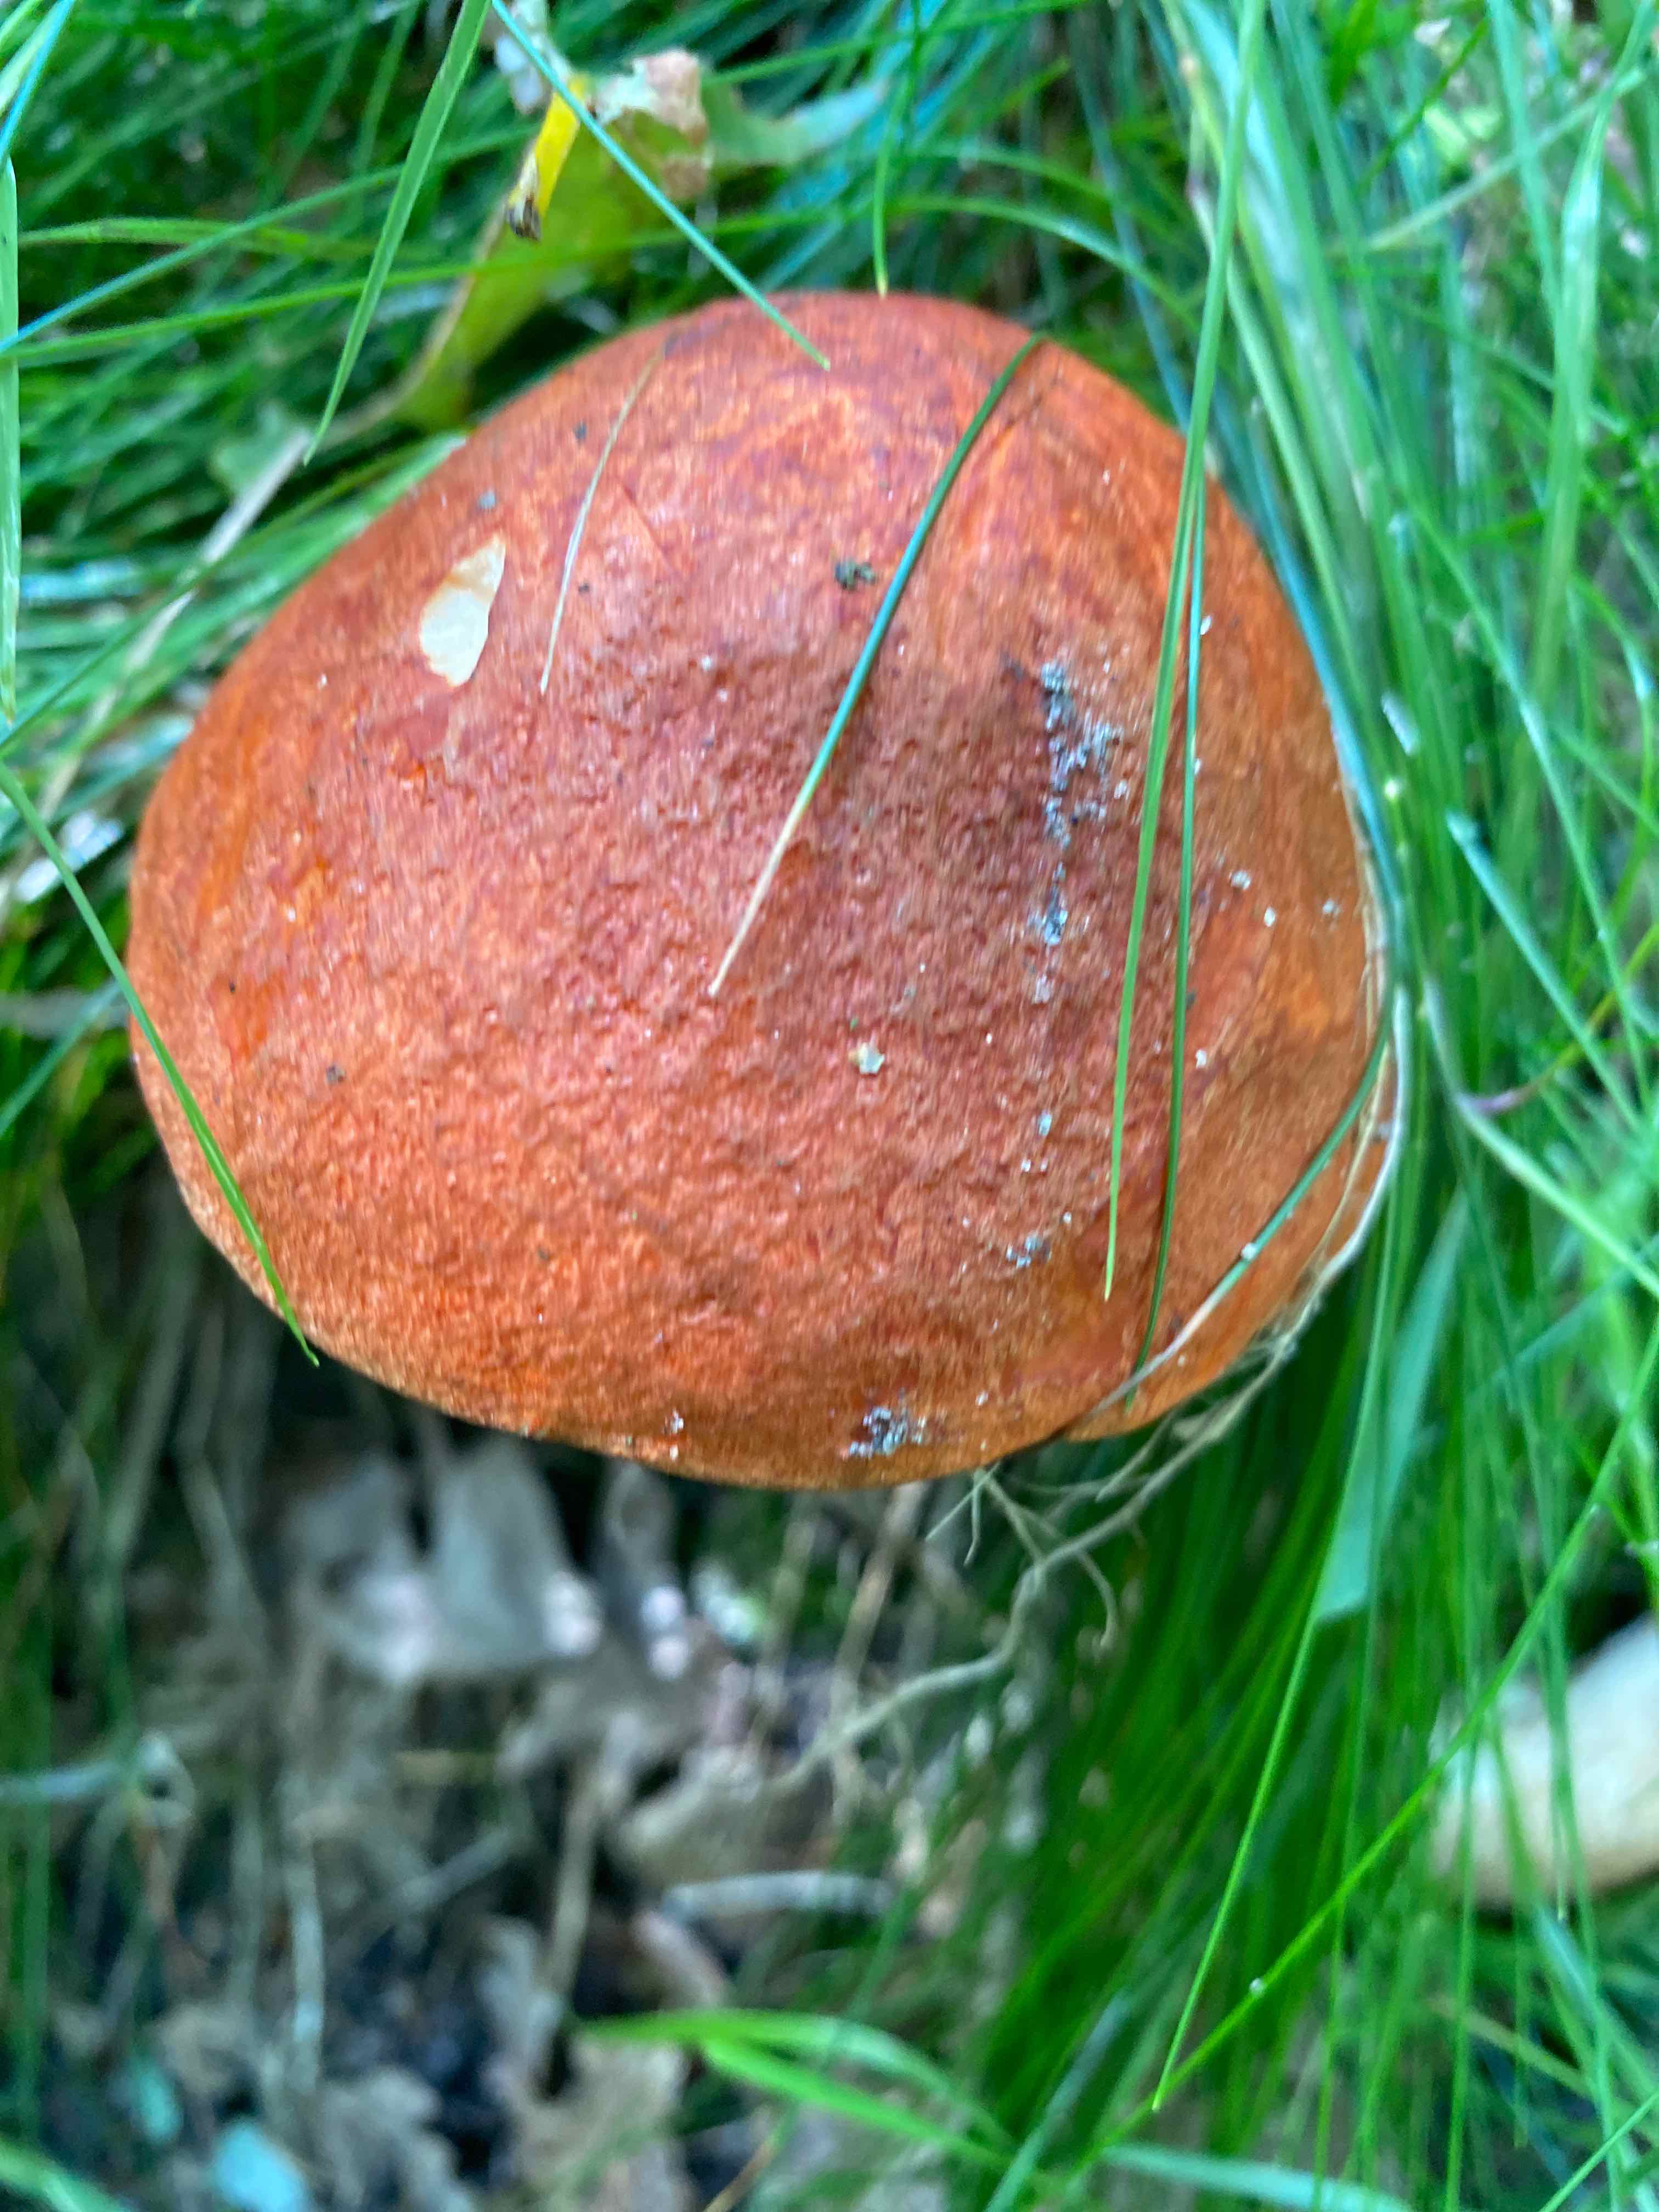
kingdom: Fungi
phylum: Basidiomycota
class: Agaricomycetes
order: Boletales
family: Boletaceae
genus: Leccinum
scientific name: Leccinum aurantiacum
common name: rustrød skælrørhat
